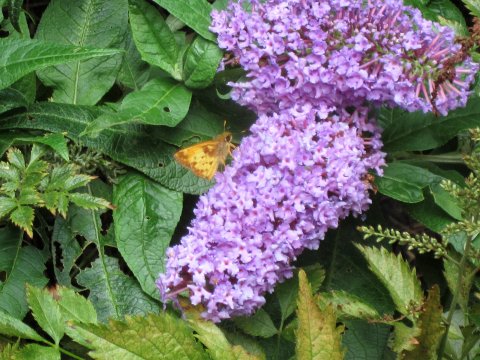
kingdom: Animalia
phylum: Arthropoda
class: Insecta
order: Lepidoptera
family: Hesperiidae
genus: Lon
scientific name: Lon zabulon
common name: Zabulon Skipper
